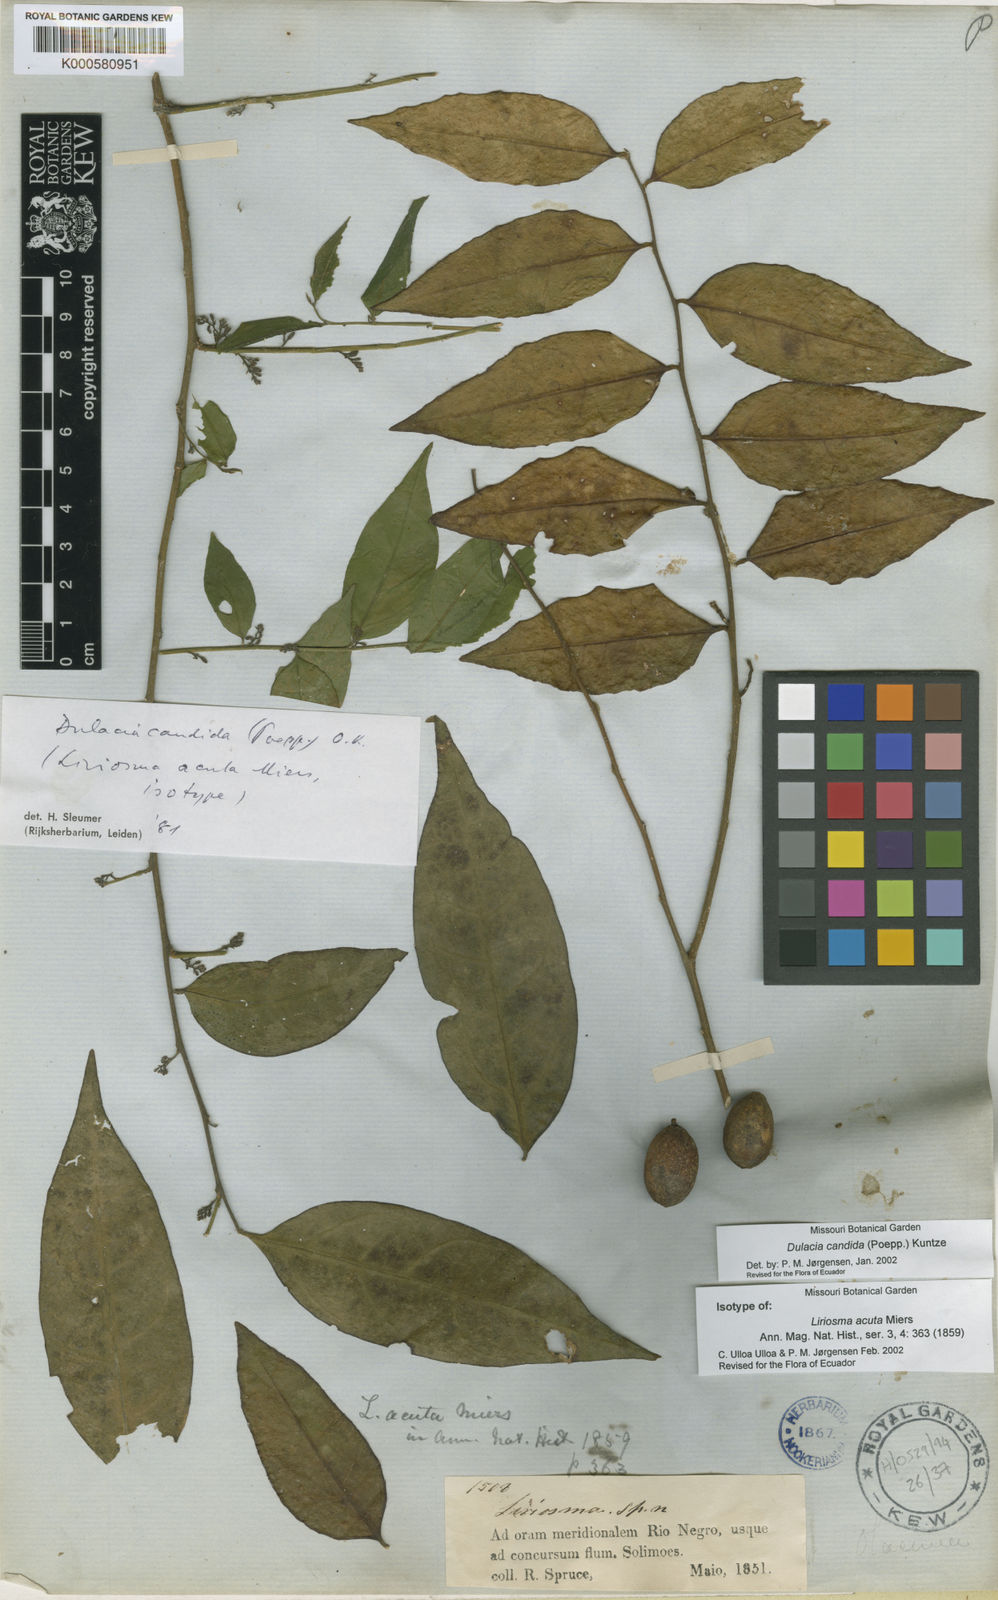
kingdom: Plantae
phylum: Tracheophyta
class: Magnoliopsida
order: Santalales
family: Olacaceae
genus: Dulacia
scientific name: Dulacia candida
